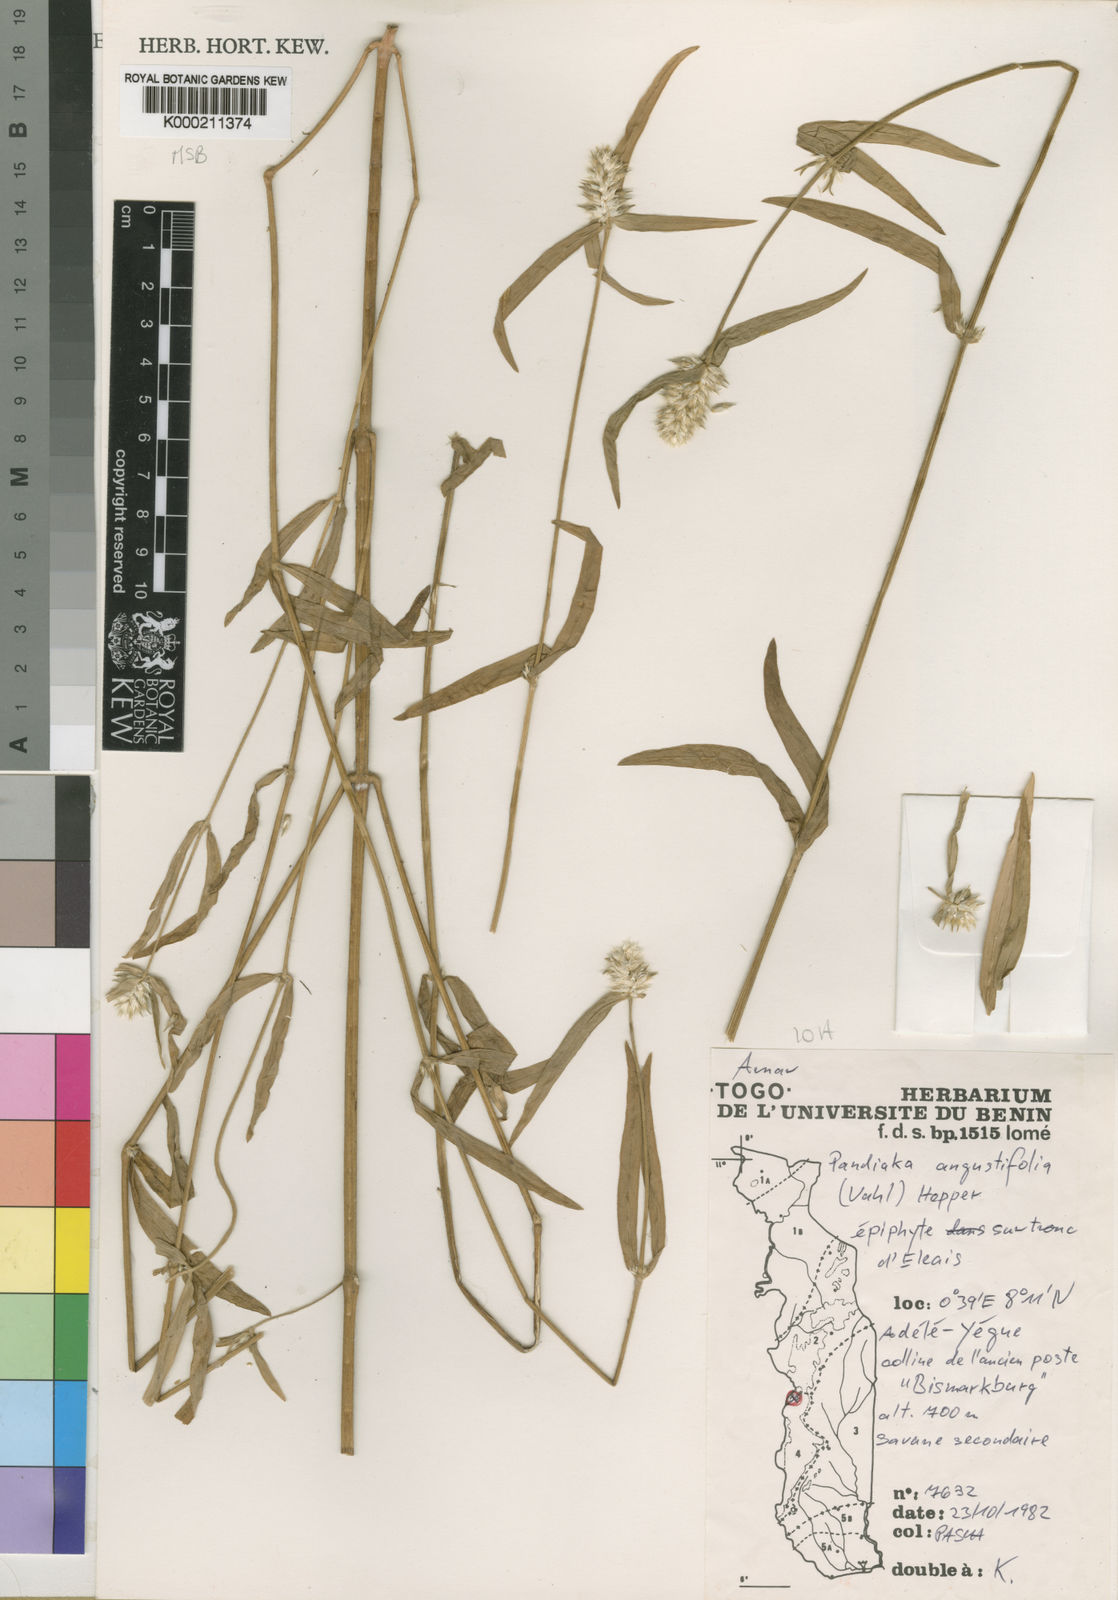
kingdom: Plantae
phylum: Tracheophyta
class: Magnoliopsida
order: Caryophyllales
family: Amaranthaceae
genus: Pandiaka
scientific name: Pandiaka angustifolia
